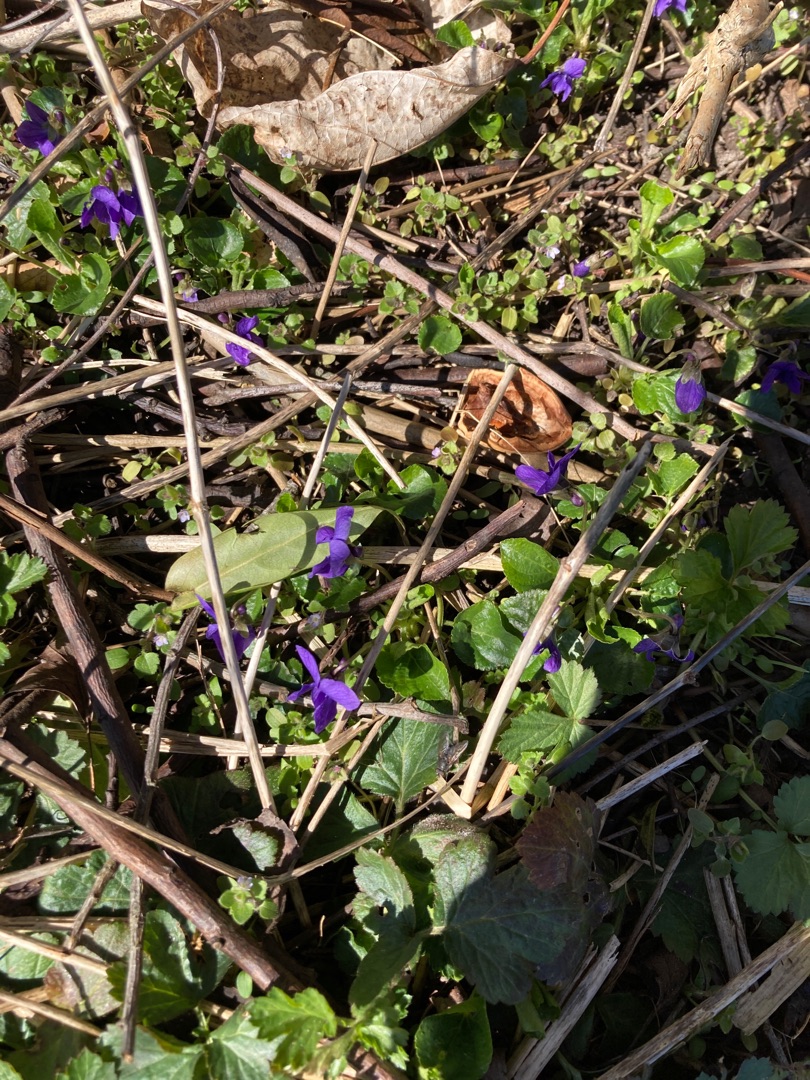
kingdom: Plantae
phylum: Tracheophyta
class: Magnoliopsida
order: Malpighiales
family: Violaceae
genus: Viola
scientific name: Viola odorata
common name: Marts-viol
